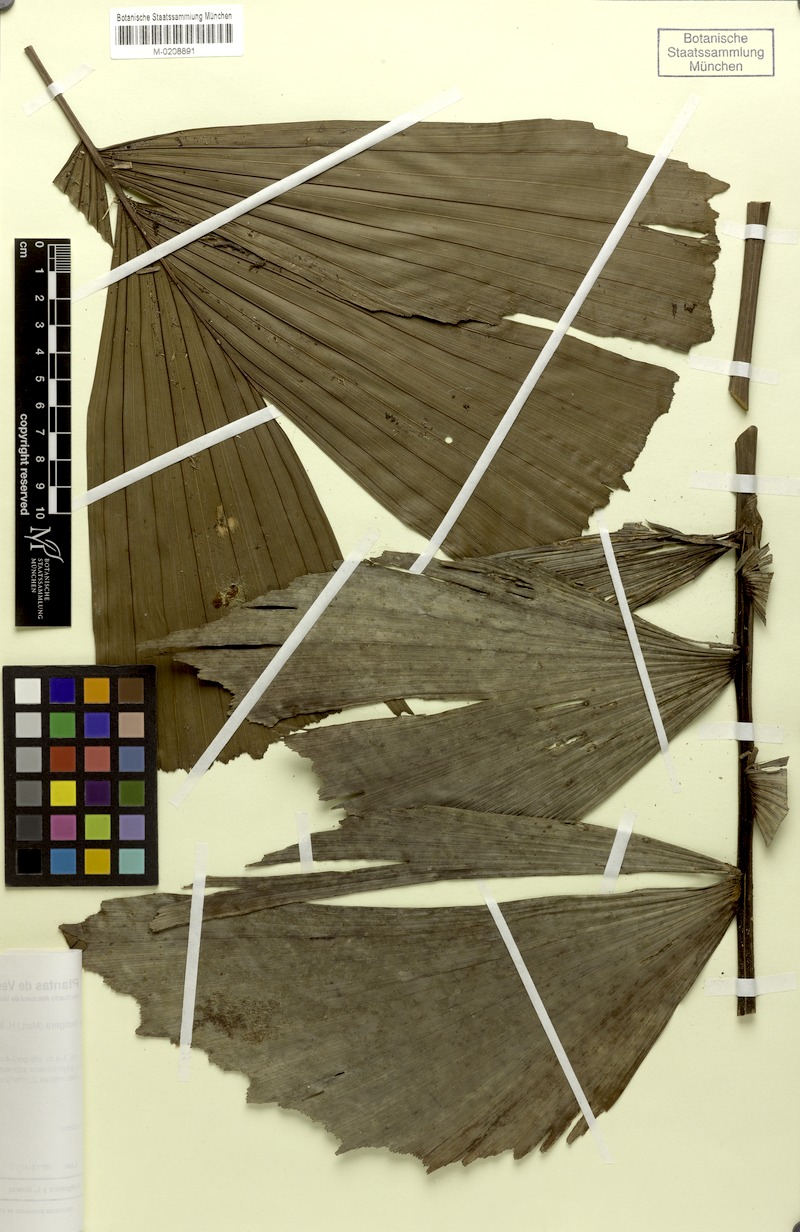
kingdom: Plantae
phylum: Tracheophyta
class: Liliopsida
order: Arecales
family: Arecaceae
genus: Iriartella
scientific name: Iriartella setigera
